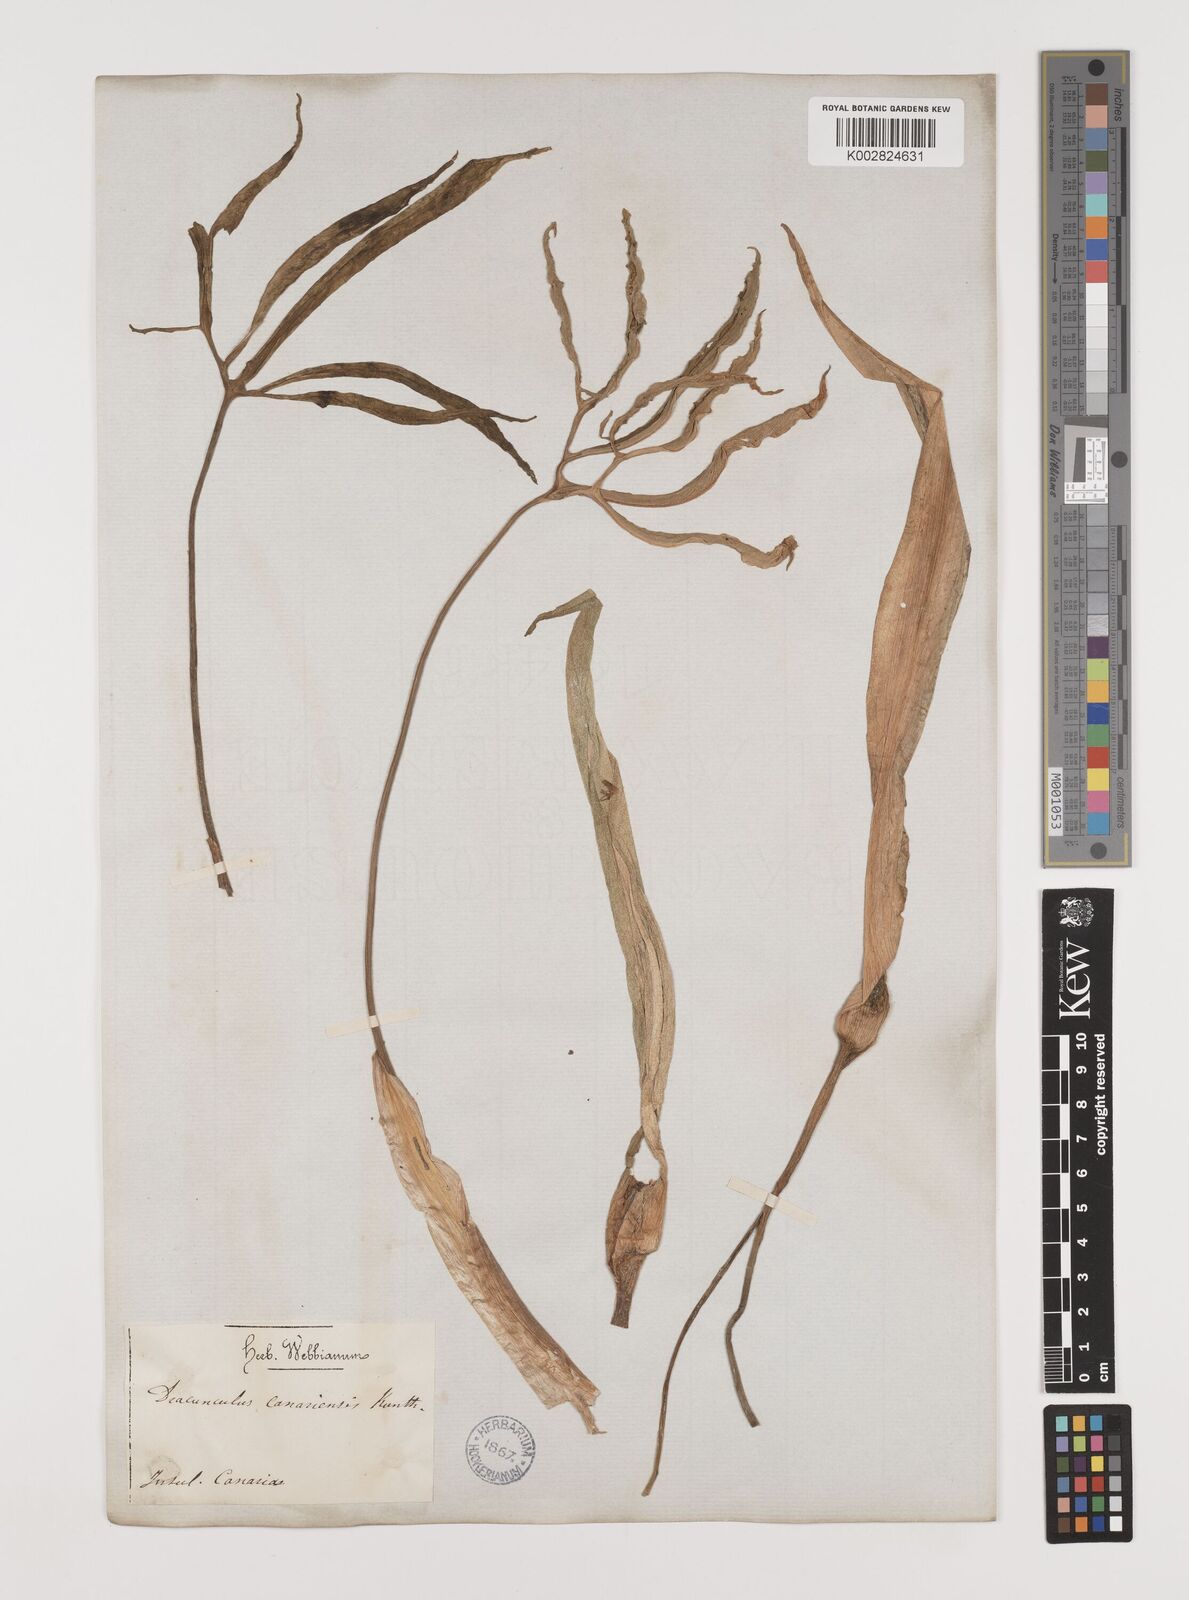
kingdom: Plantae
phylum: Tracheophyta
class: Liliopsida
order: Alismatales
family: Araceae
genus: Dracunculus
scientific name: Dracunculus
